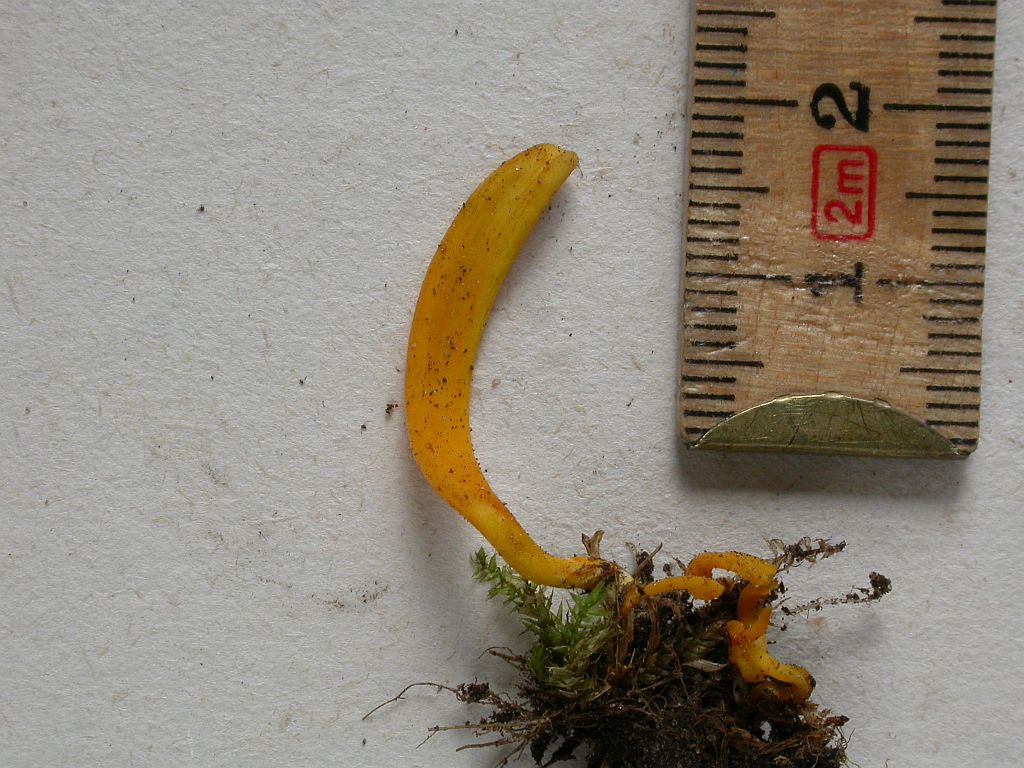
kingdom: Fungi
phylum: Basidiomycota
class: Agaricomycetes
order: Agaricales
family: Clavariaceae
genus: Clavulinopsis
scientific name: Clavulinopsis laeticolor
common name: flamme-køllesvamp
